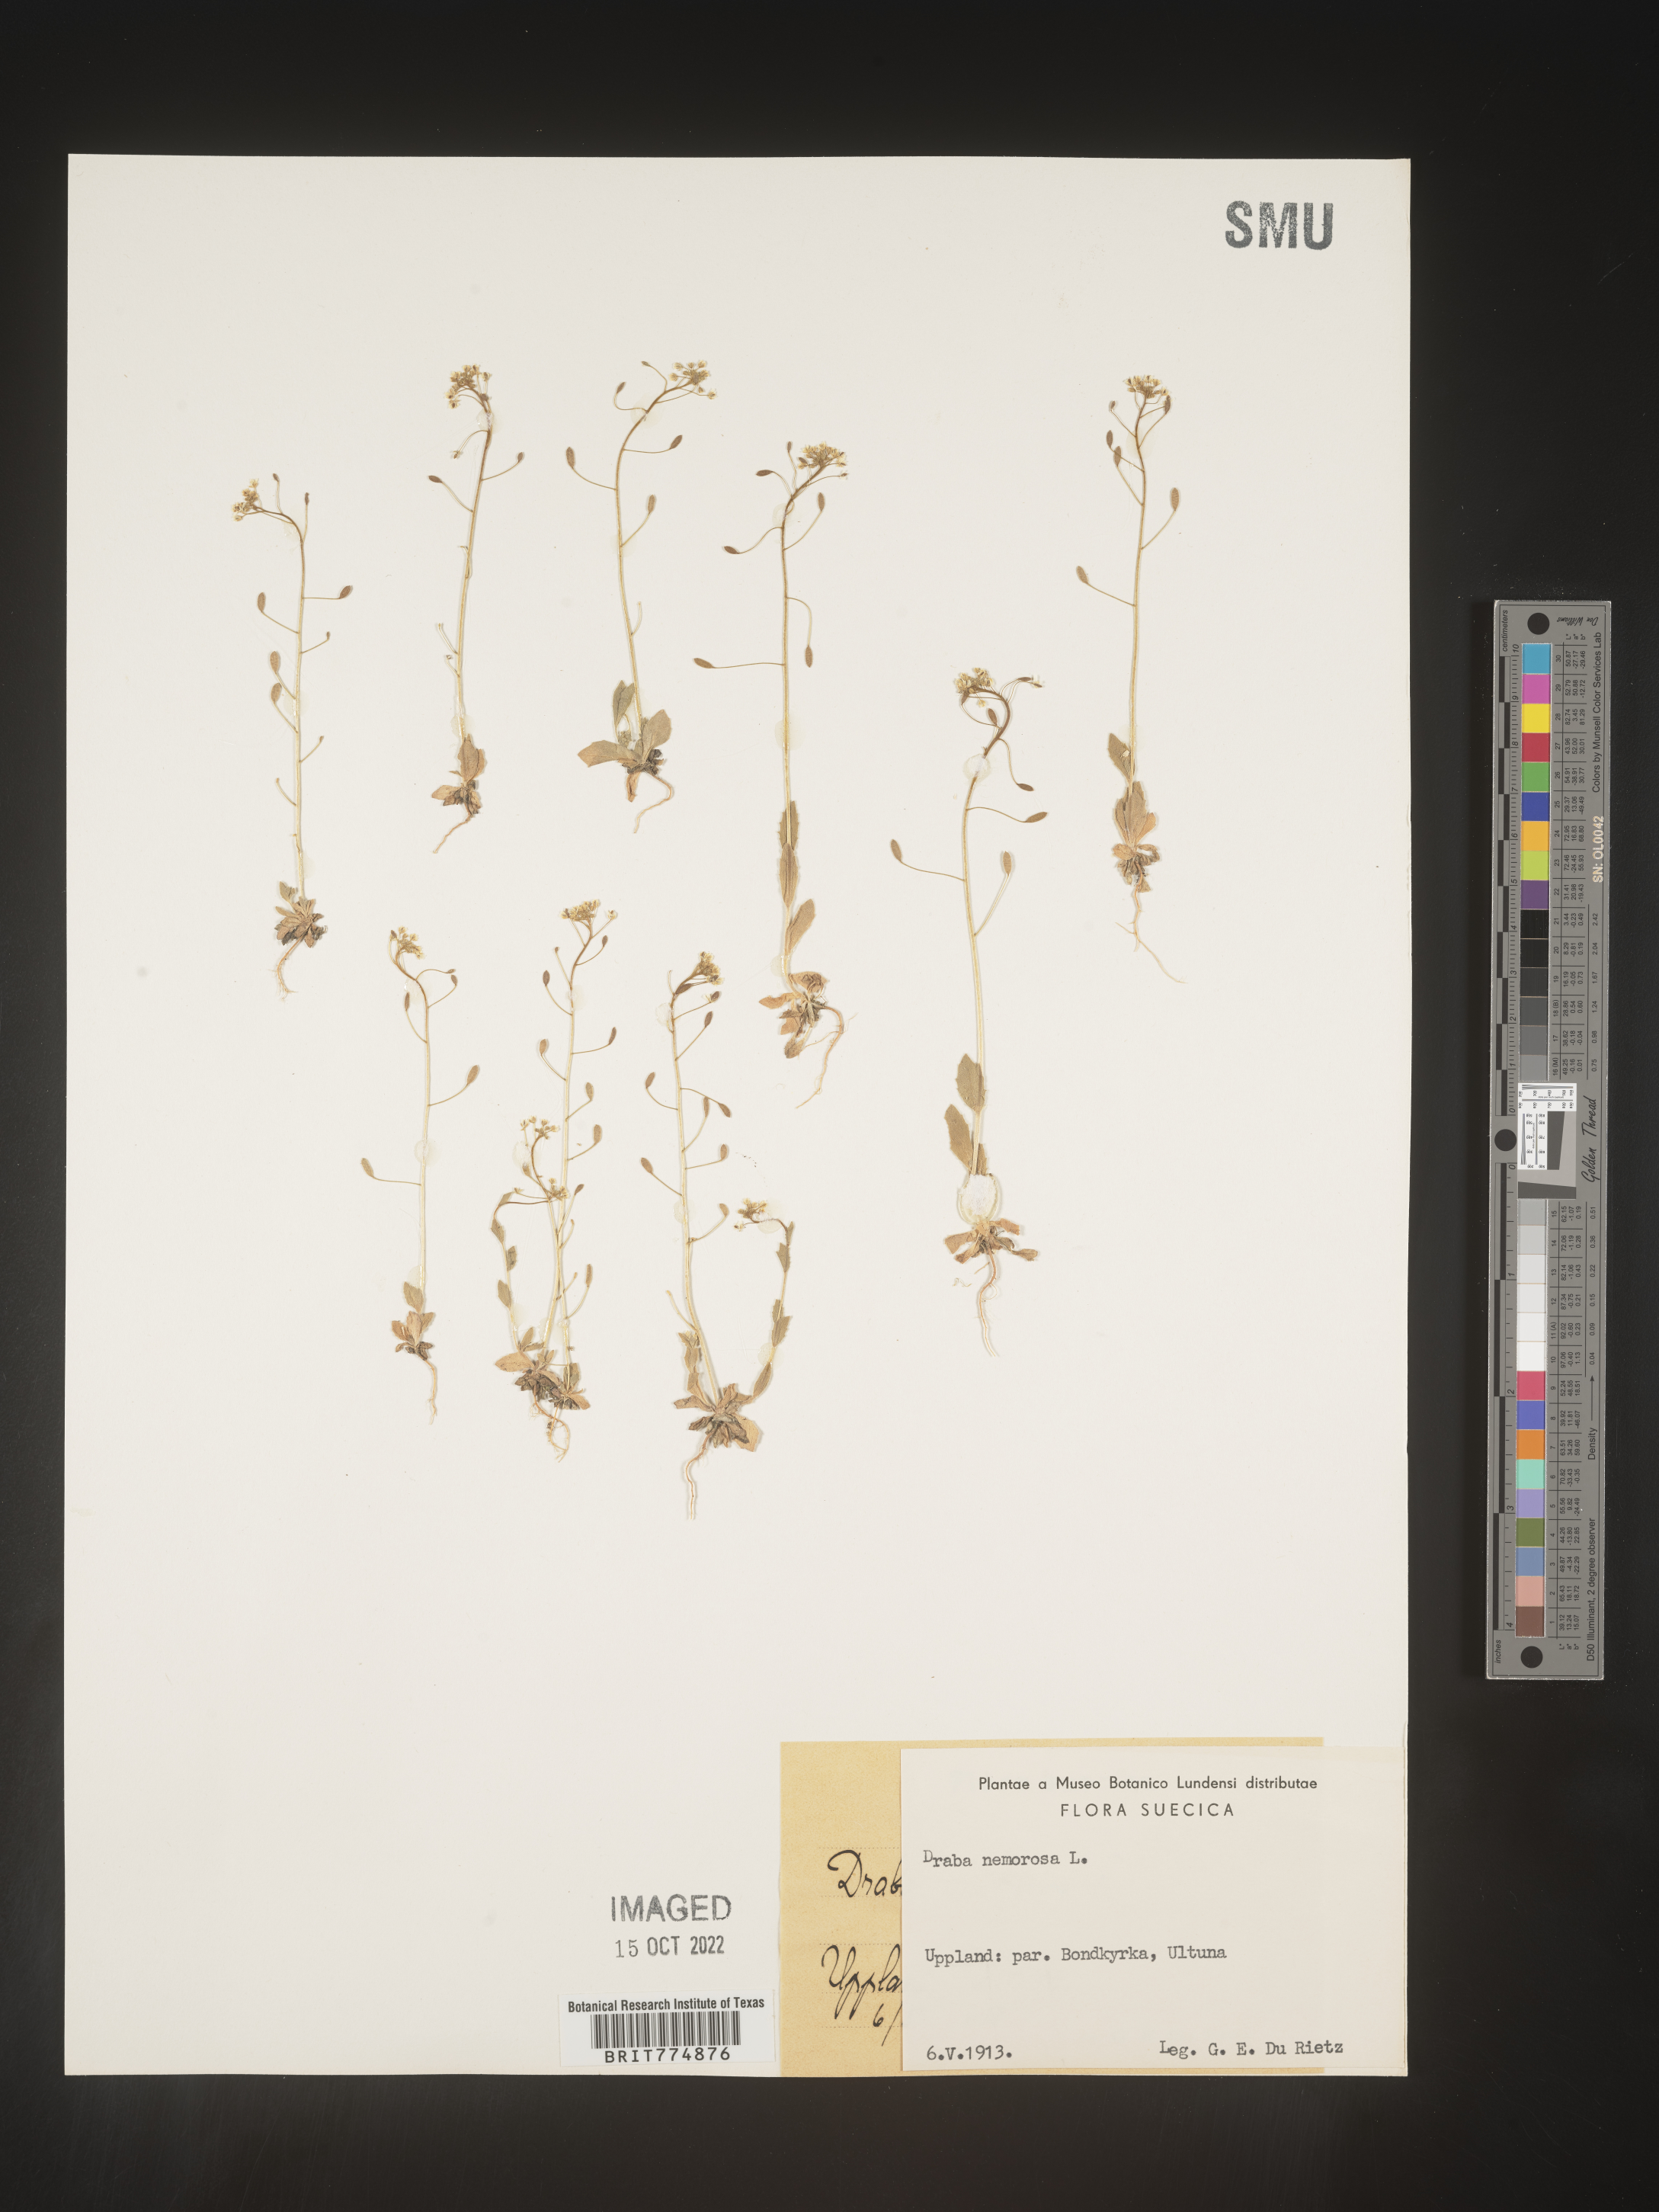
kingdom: Plantae
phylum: Tracheophyta
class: Magnoliopsida
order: Brassicales
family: Brassicaceae
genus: Draba
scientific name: Draba
